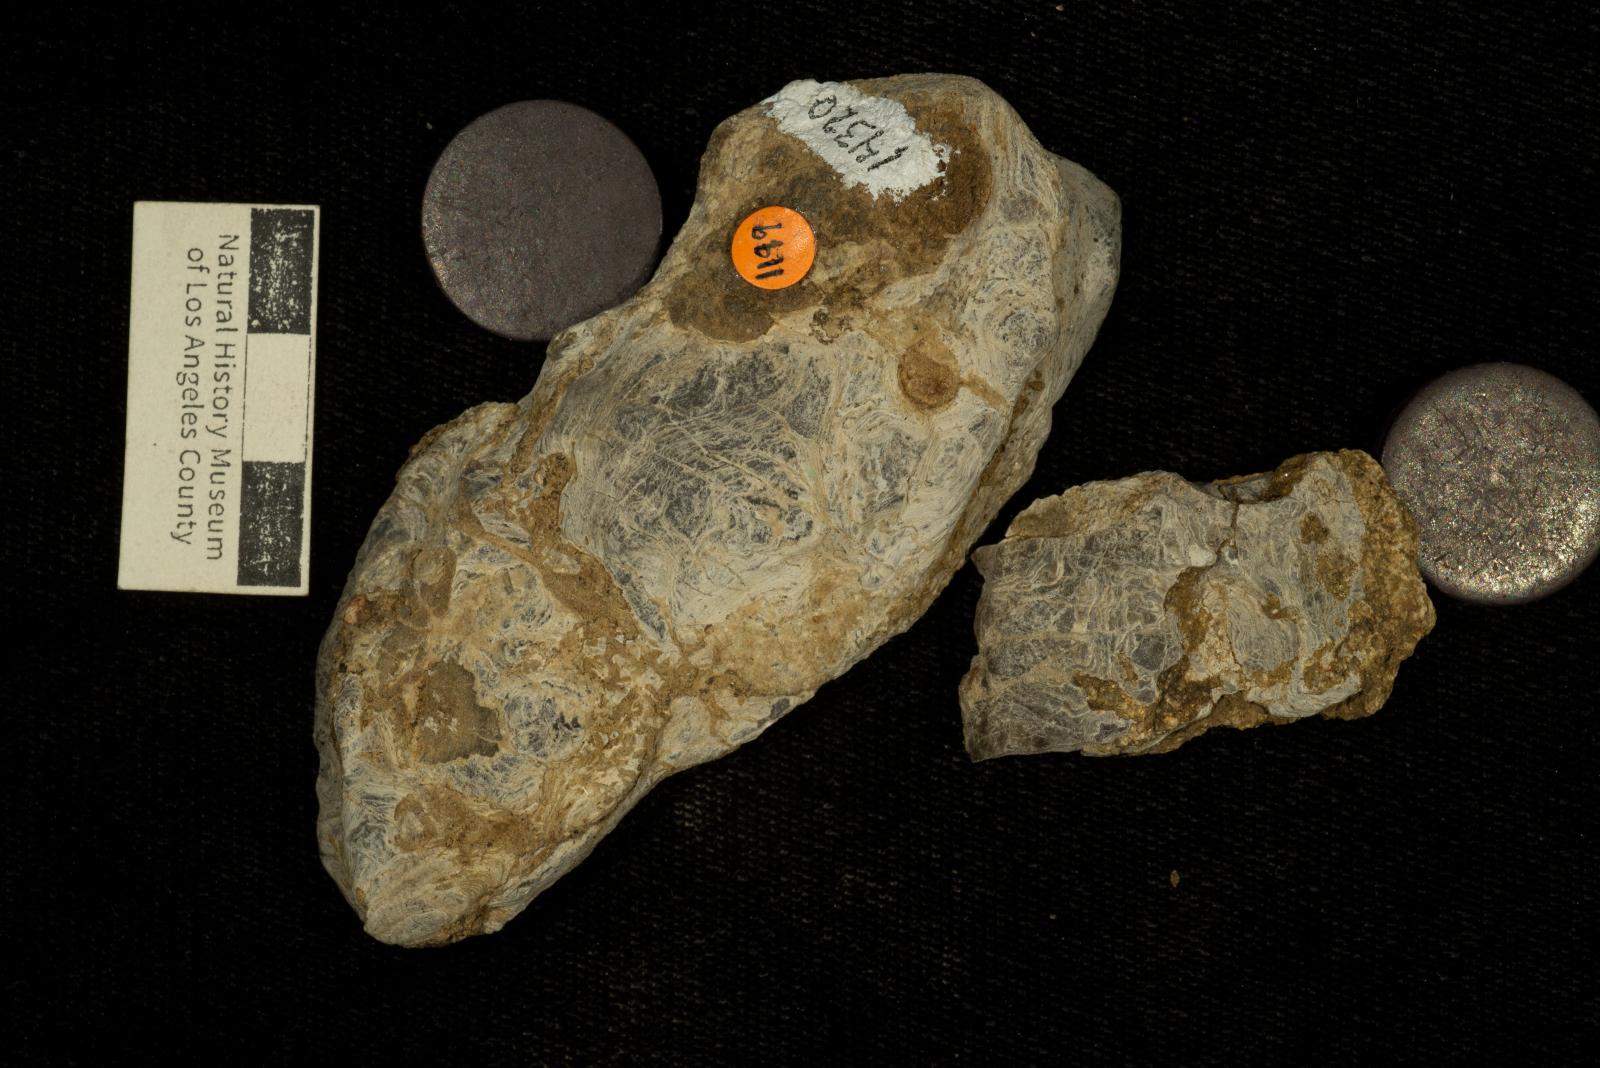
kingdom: Animalia
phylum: Mollusca
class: Bivalvia
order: Ostreida
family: Gryphaeidae
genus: Amphidonte
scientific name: Amphidonte Exogyra parasitica
